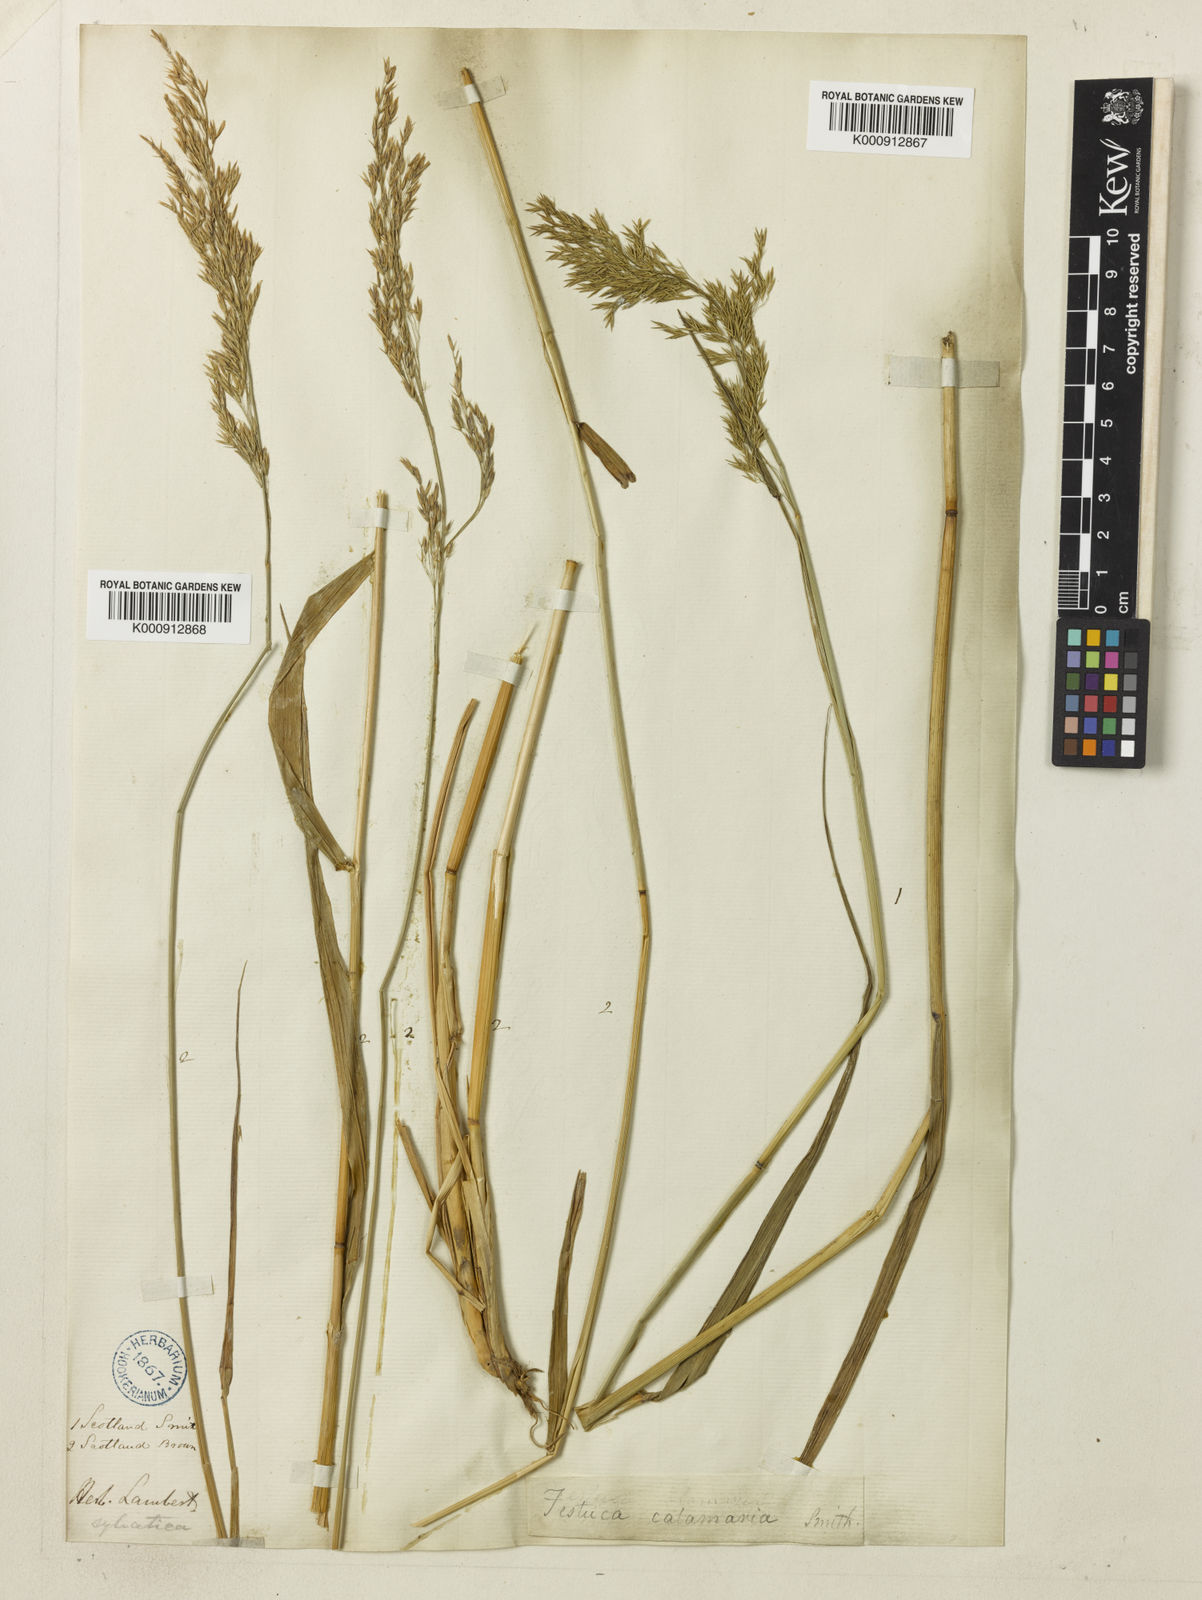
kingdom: Plantae
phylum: Tracheophyta
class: Liliopsida
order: Poales
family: Poaceae
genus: Festuca
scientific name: Festuca altissima
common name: Wood fescue
